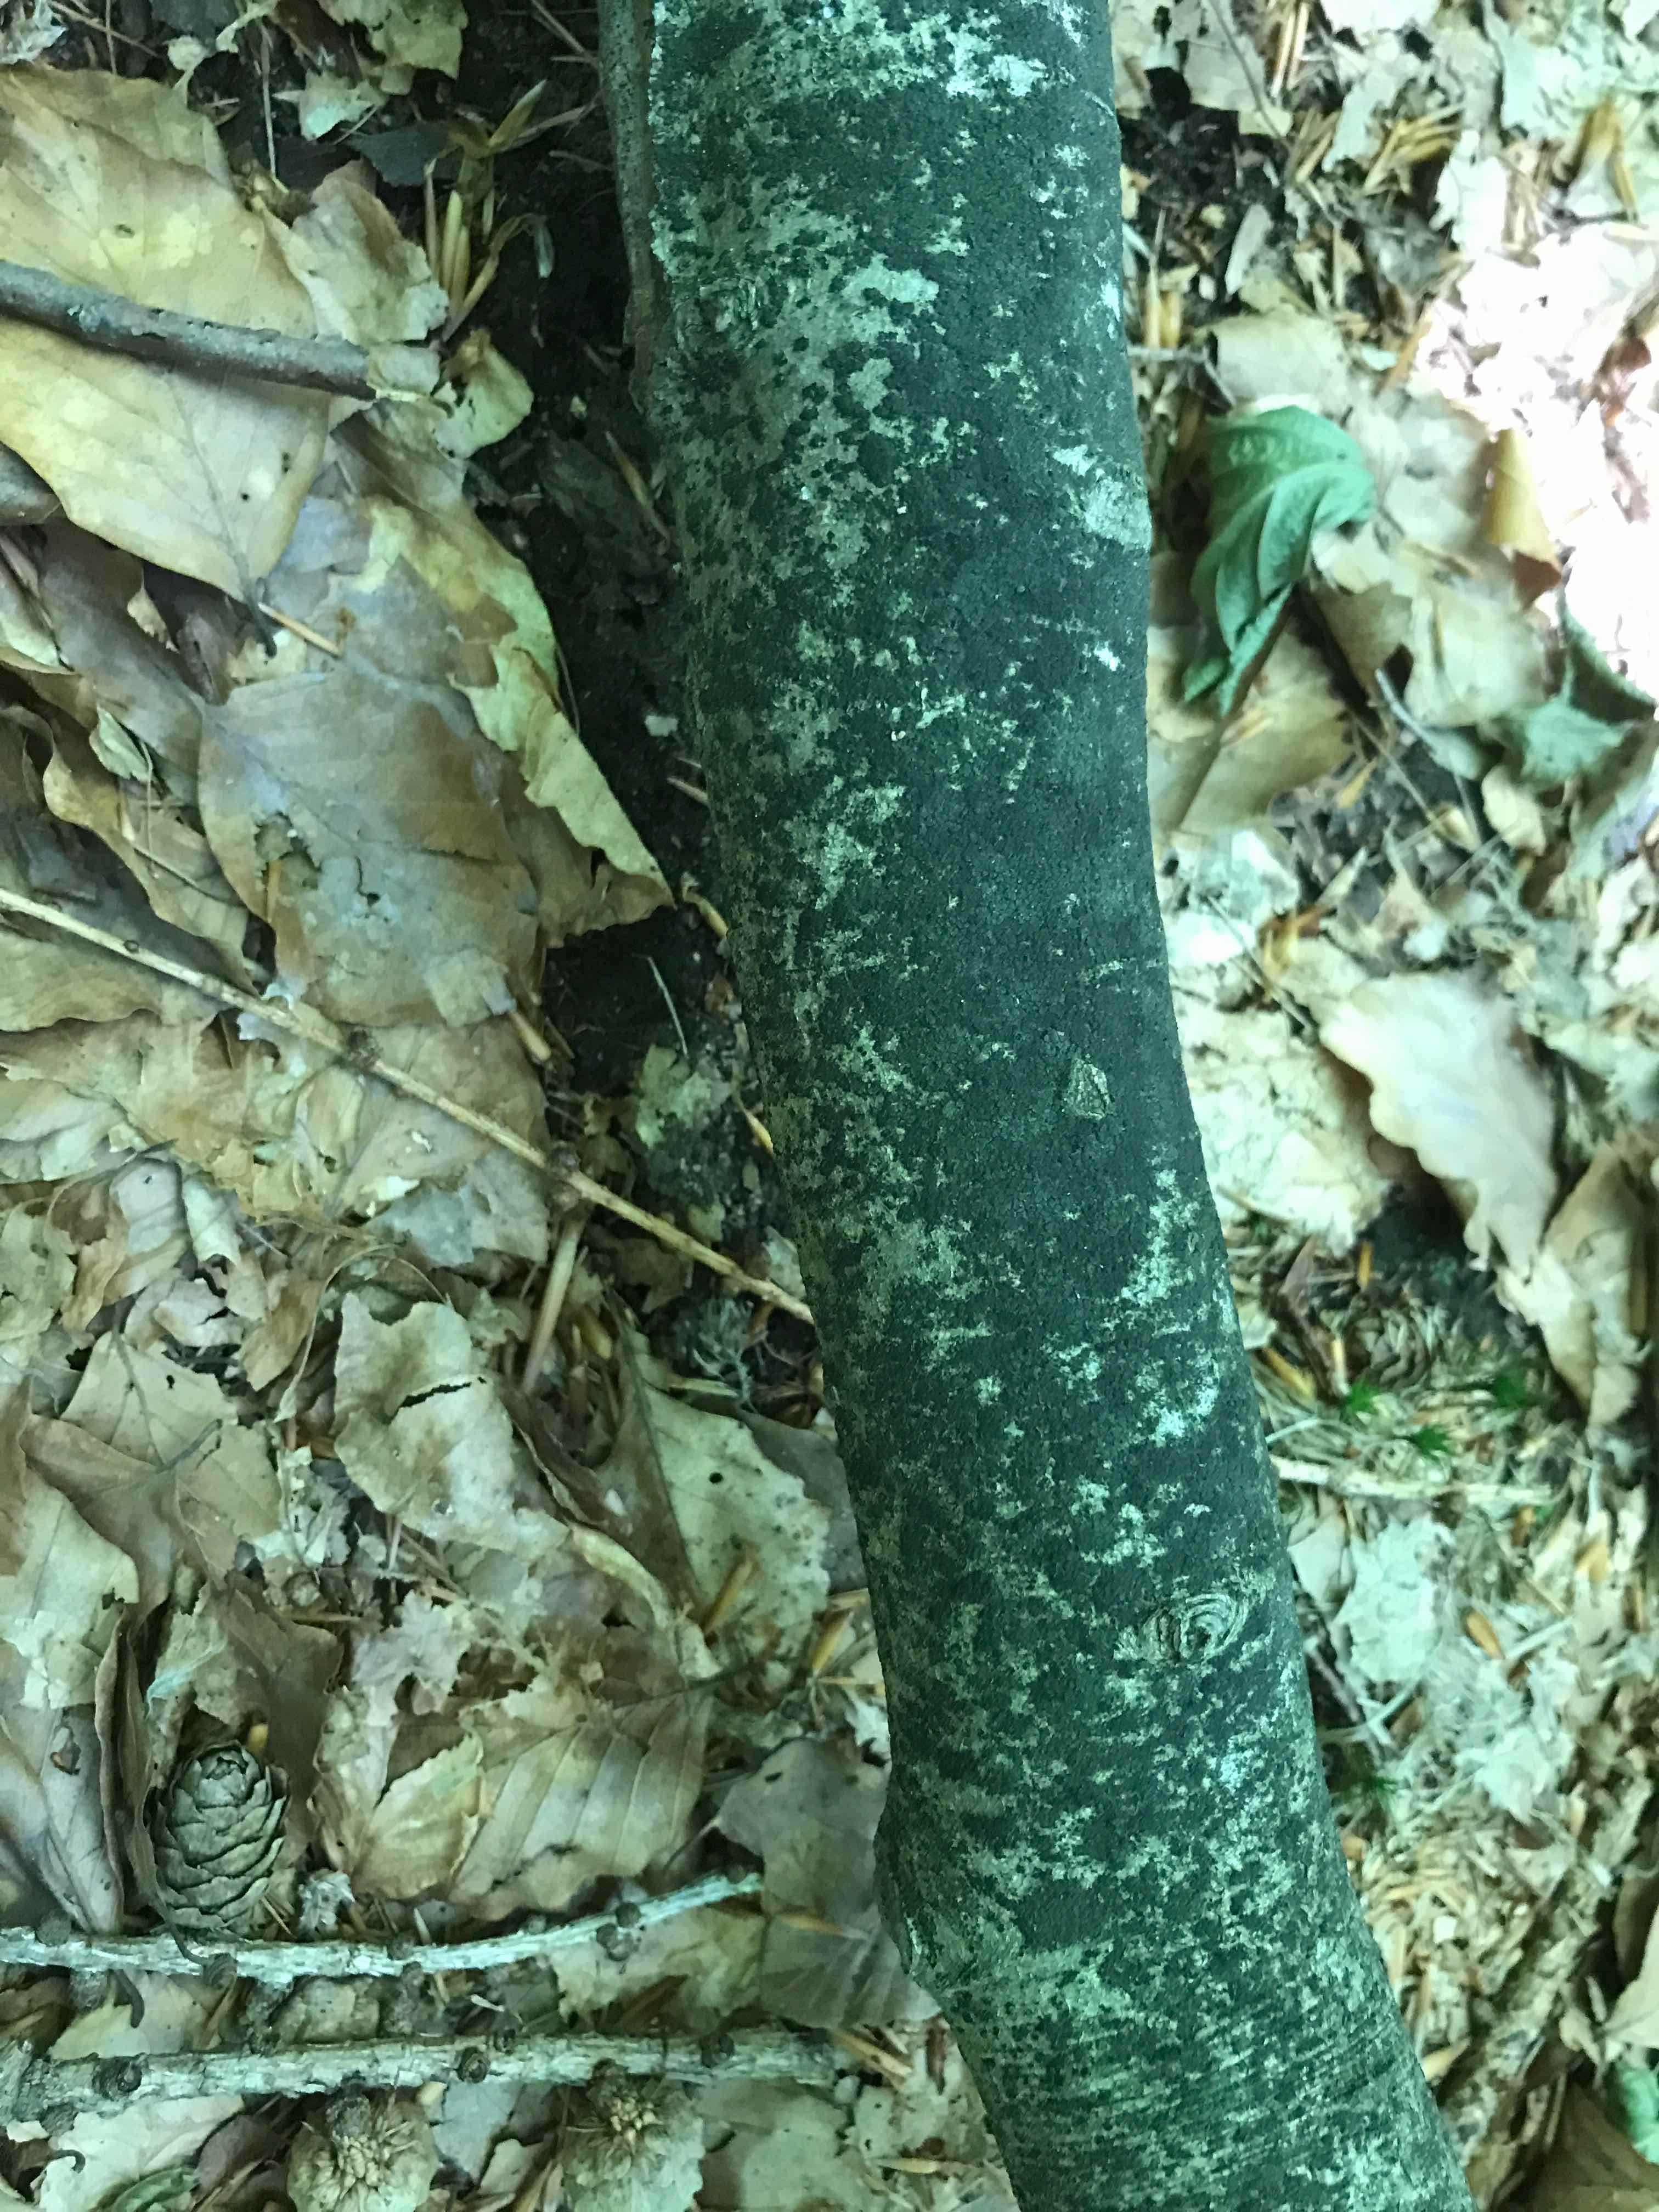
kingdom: Fungi
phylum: Ascomycota
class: Leotiomycetes
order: Rhytismatales
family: Ascodichaenaceae
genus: Ascodichaena
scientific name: Ascodichaena rugosa
